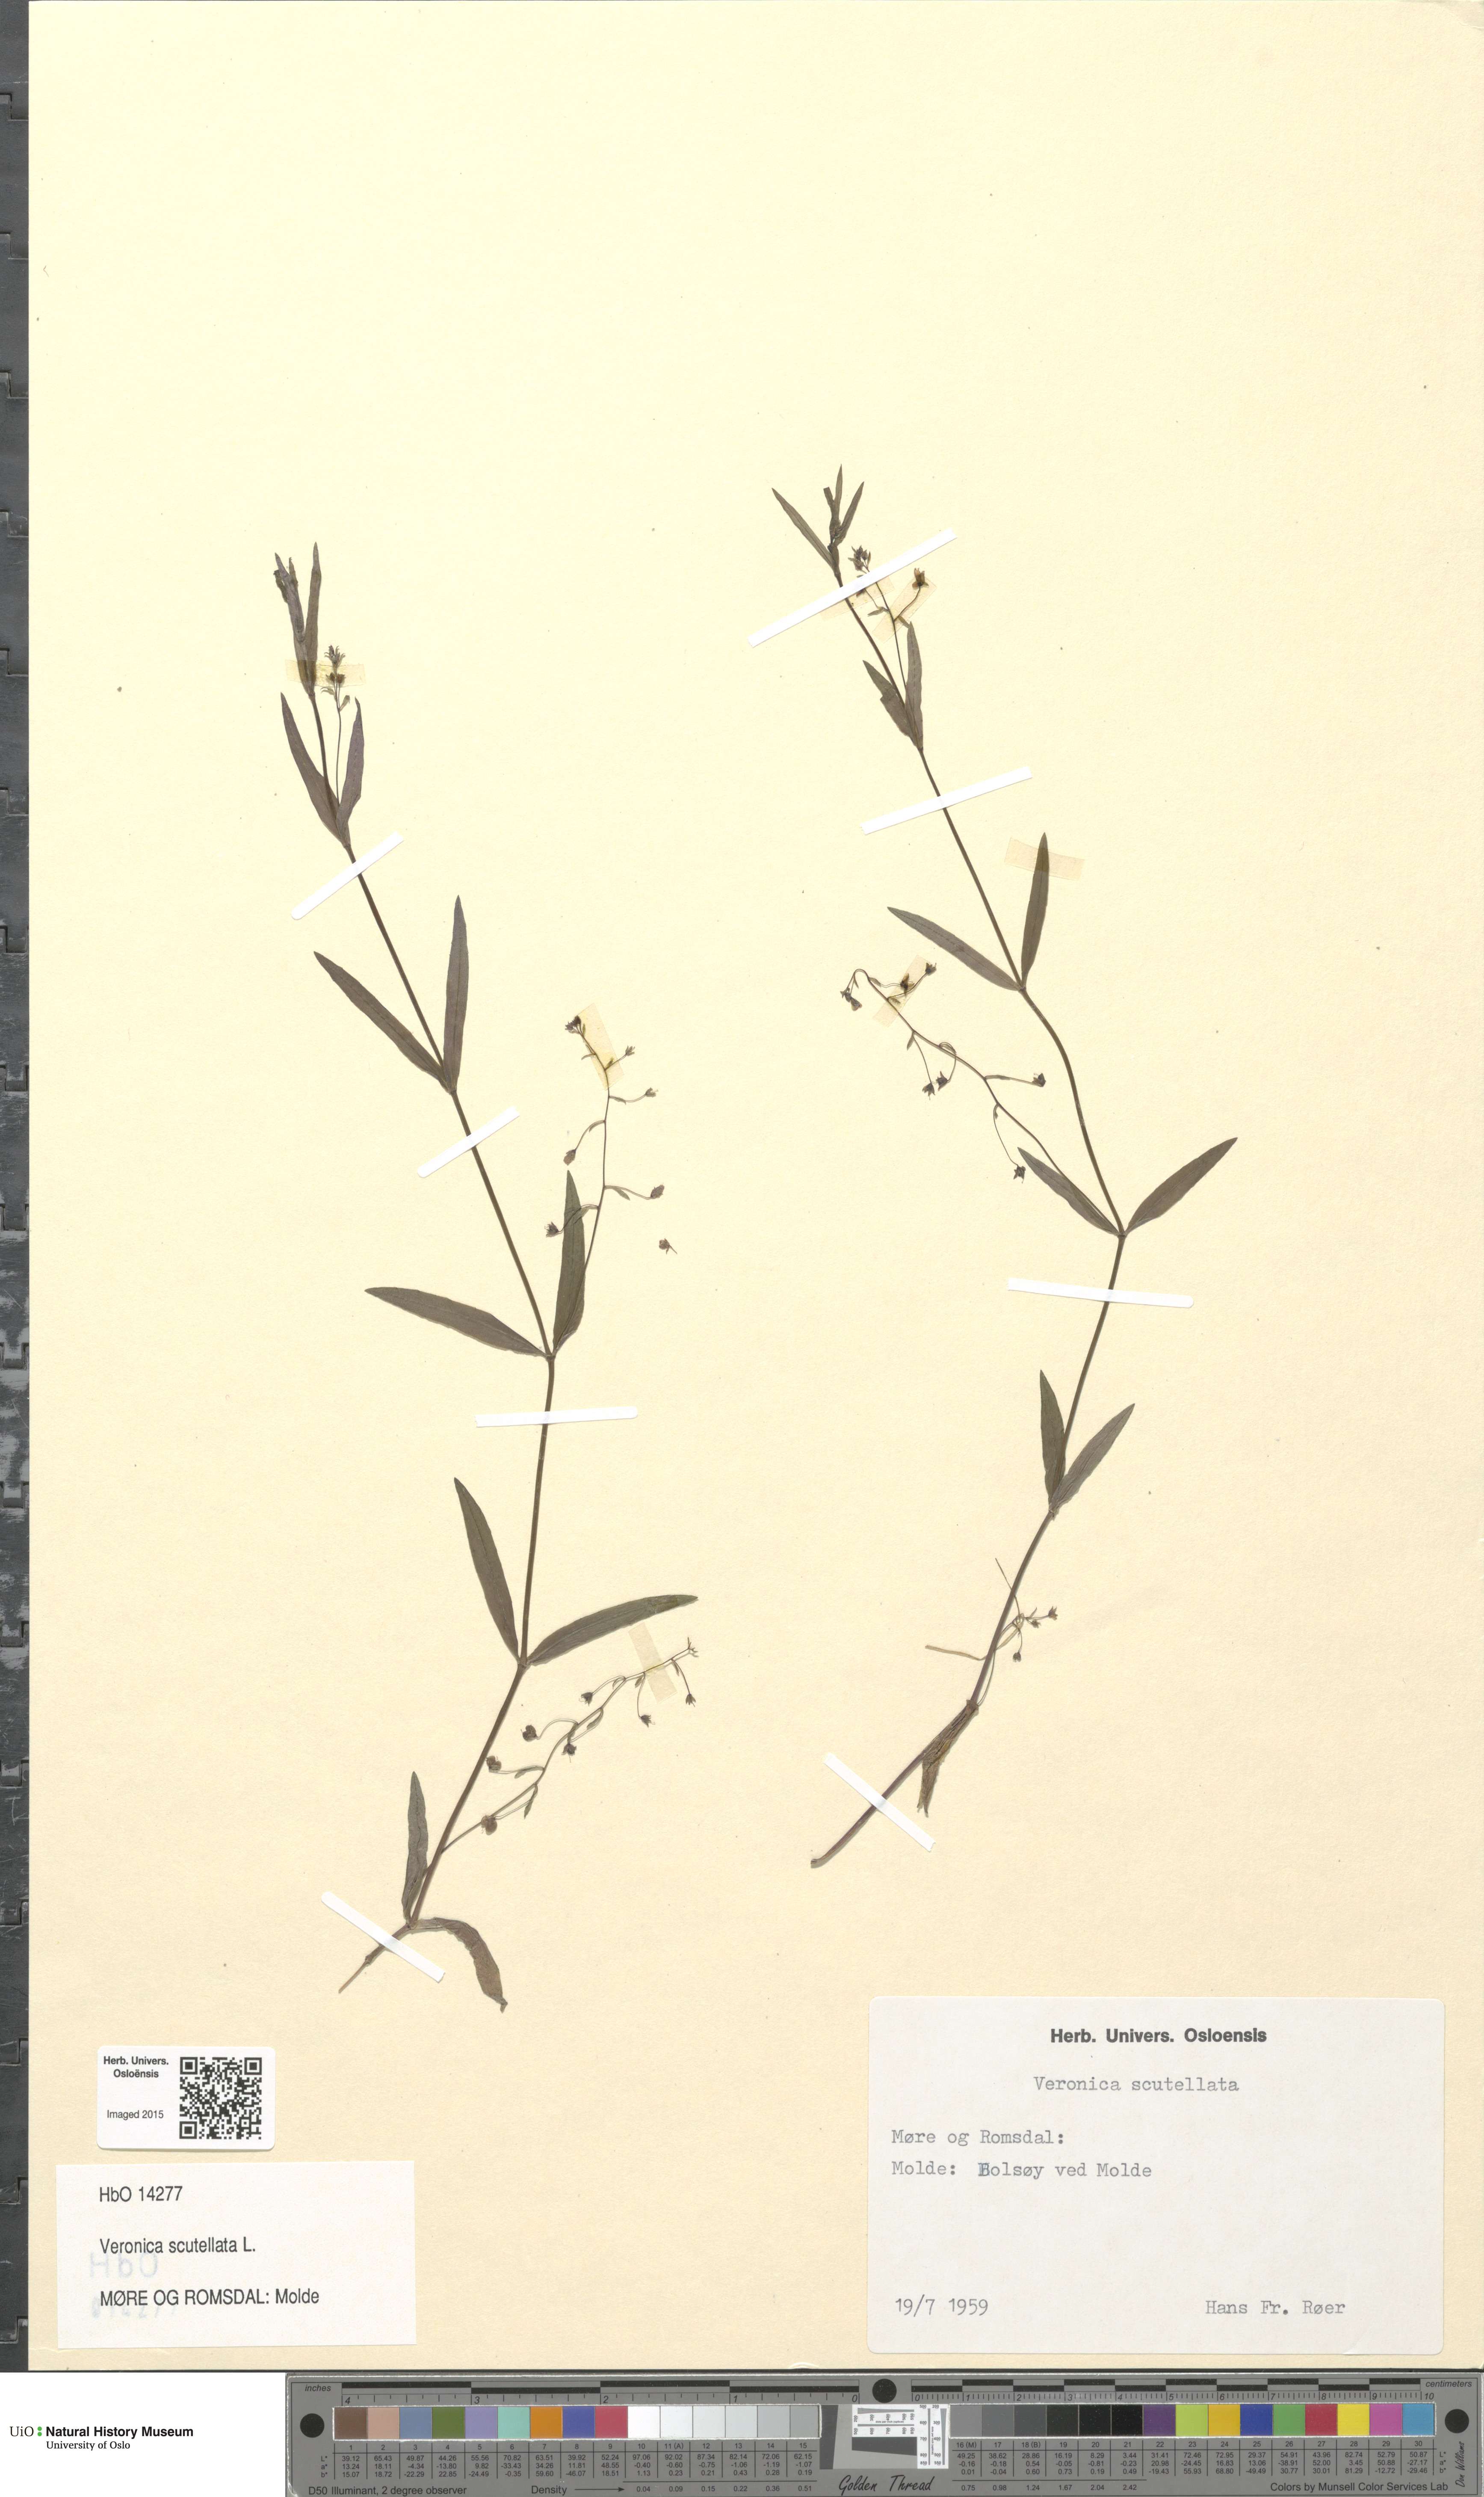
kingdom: Plantae
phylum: Tracheophyta
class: Magnoliopsida
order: Lamiales
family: Plantaginaceae
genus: Veronica
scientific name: Veronica scutellata
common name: Marsh speedwell
